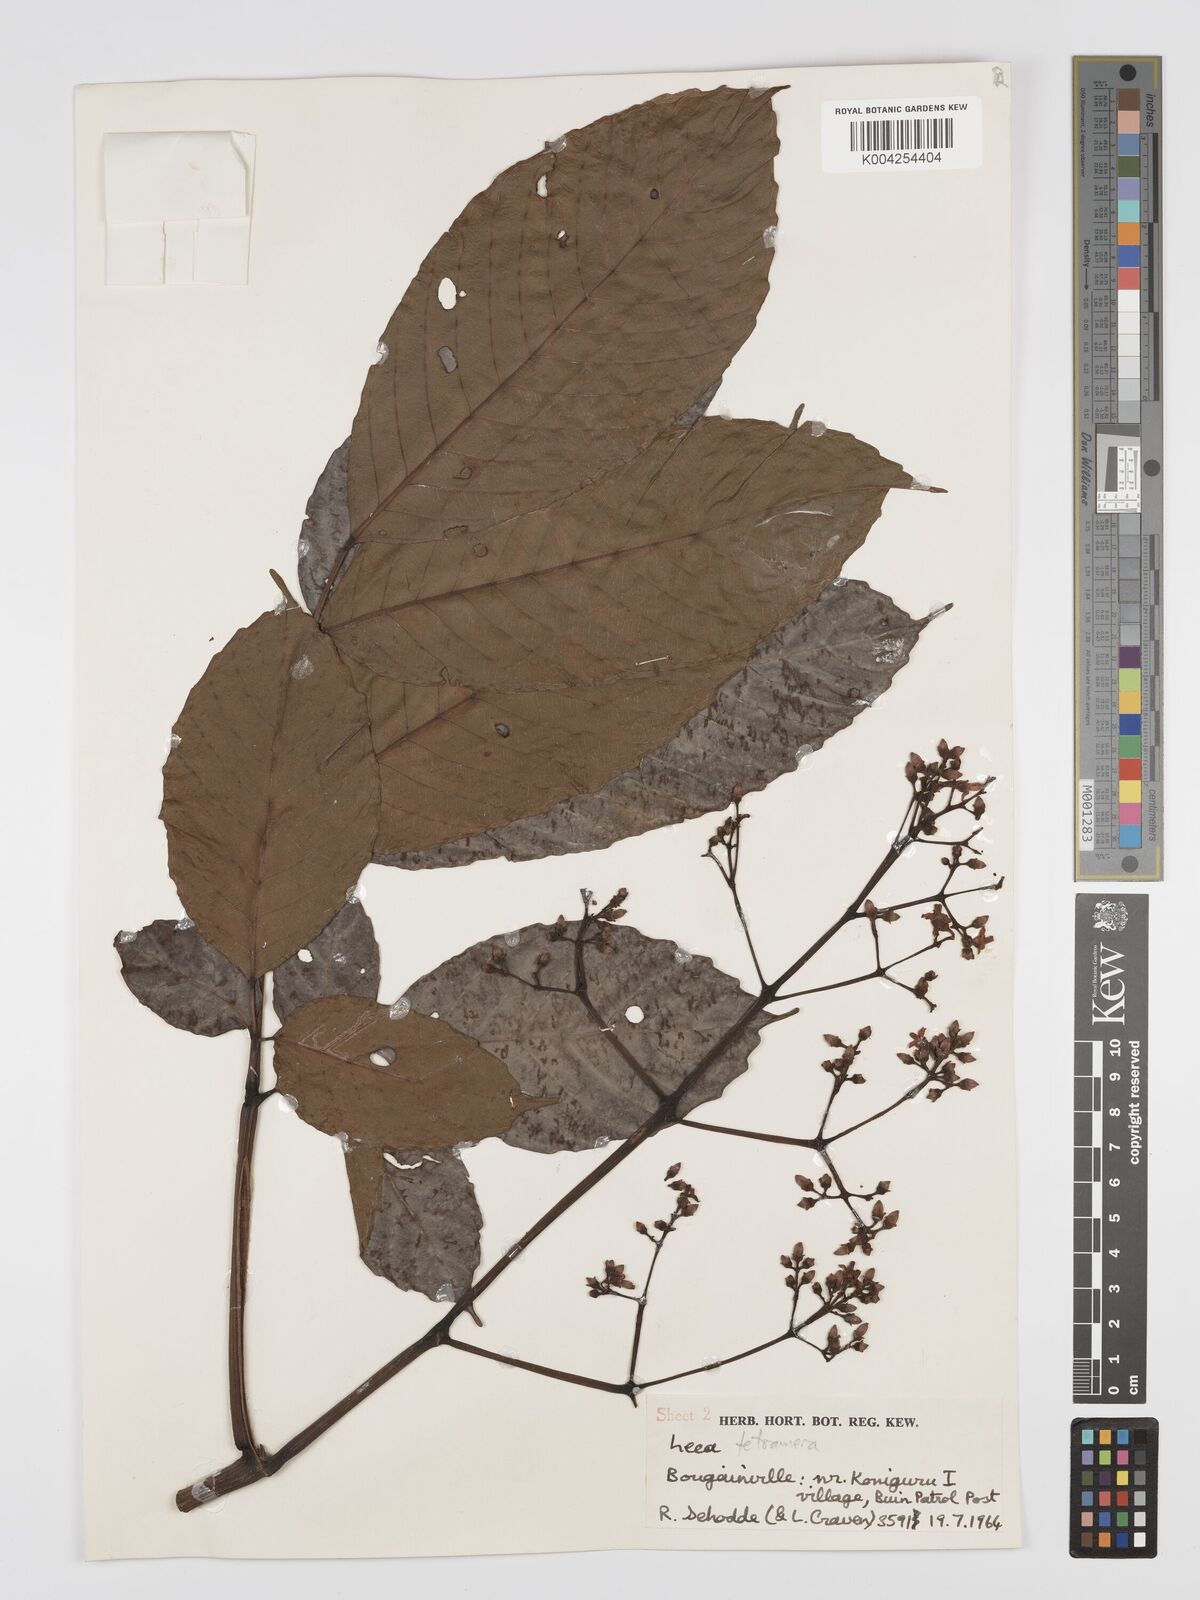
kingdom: Plantae
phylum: Tracheophyta
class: Magnoliopsida
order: Vitales
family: Vitaceae
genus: Leea
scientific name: Leea tetramera
